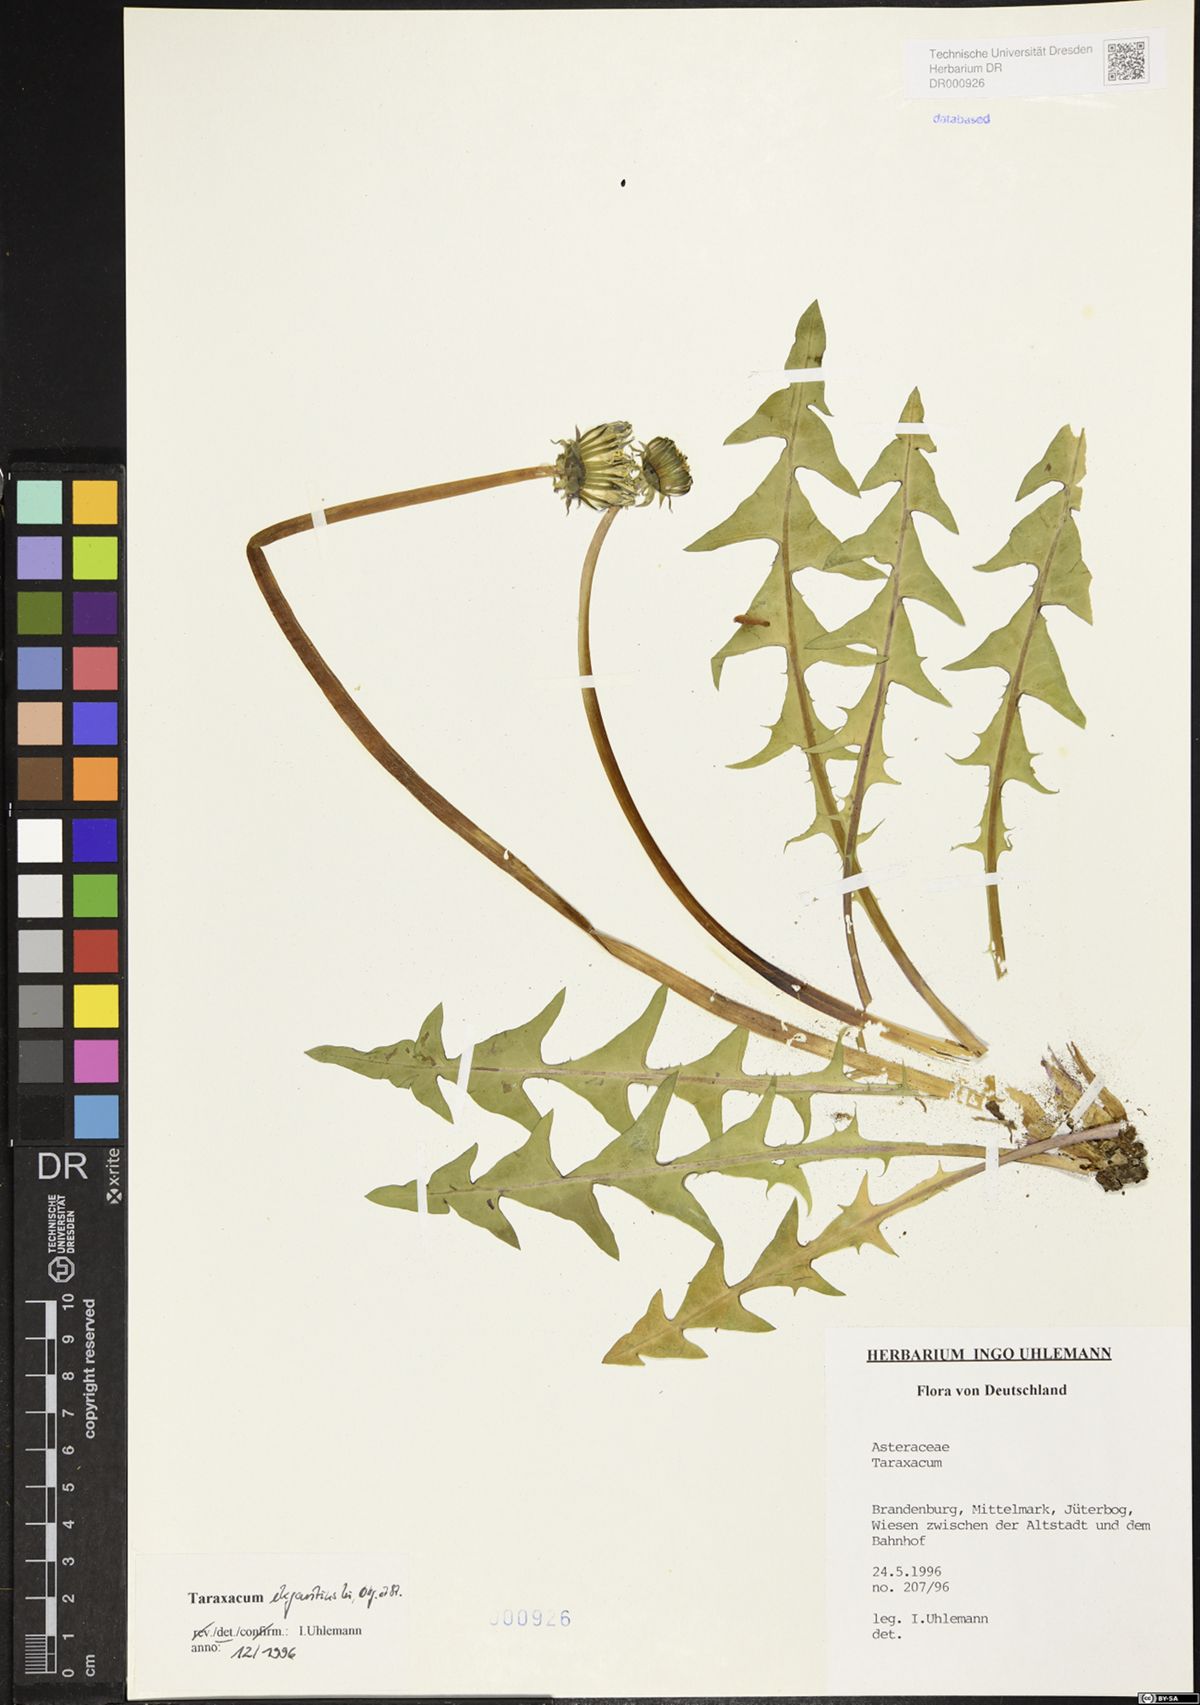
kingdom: Plantae
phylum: Tracheophyta
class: Magnoliopsida
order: Asterales
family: Asteraceae
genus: Taraxacum
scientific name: Taraxacum elegantius
